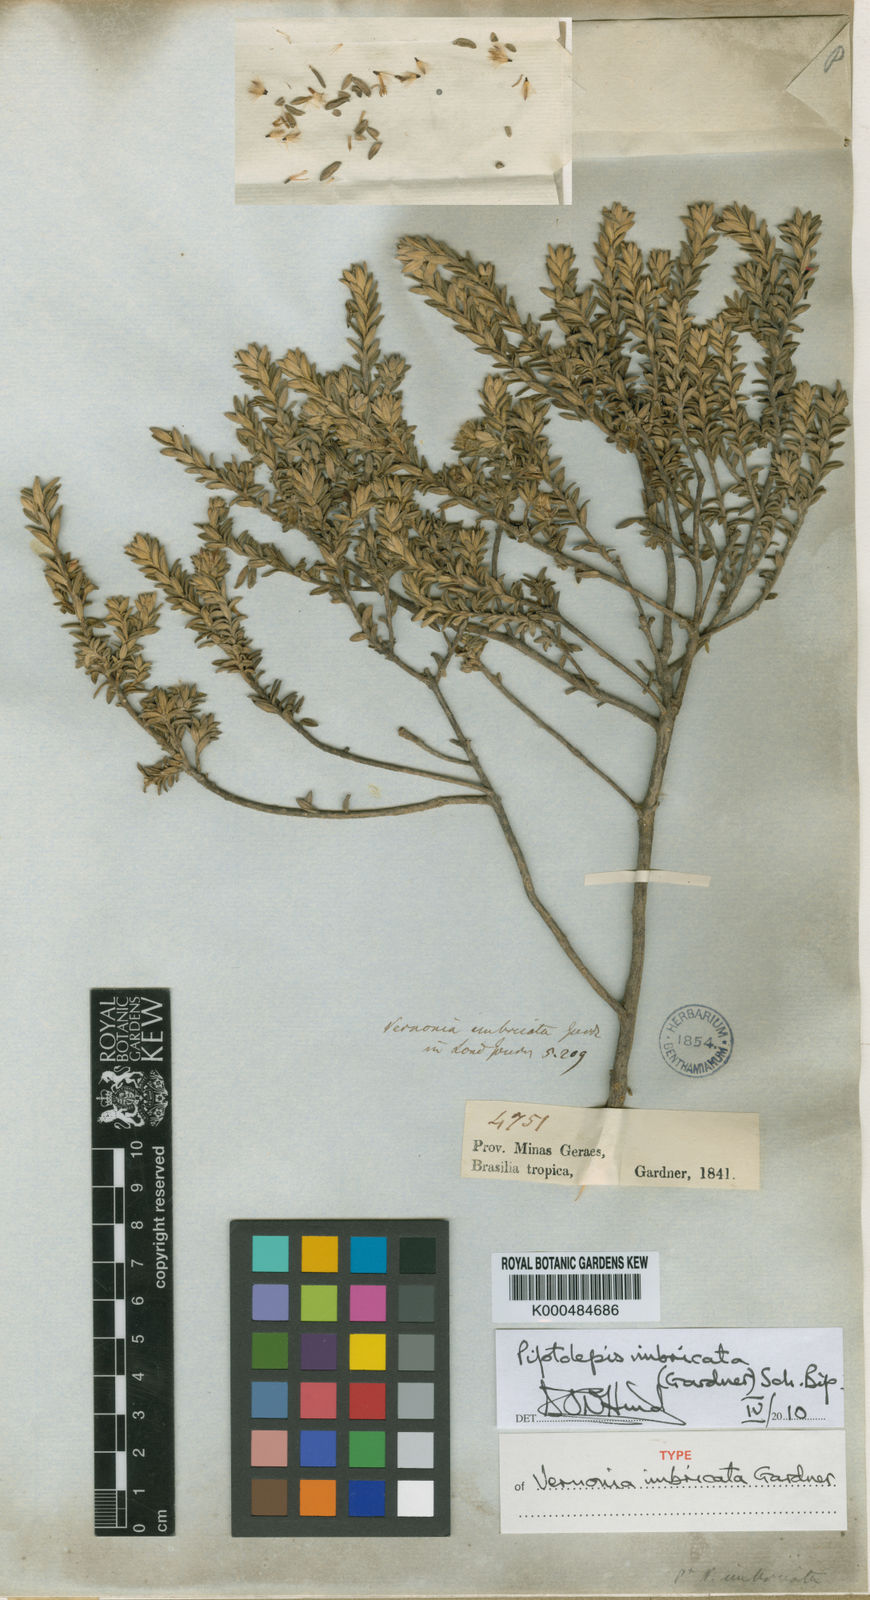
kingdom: Plantae
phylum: Tracheophyta
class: Magnoliopsida
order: Asterales
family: Asteraceae
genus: Piptolepis
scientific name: Piptolepis imbricata
